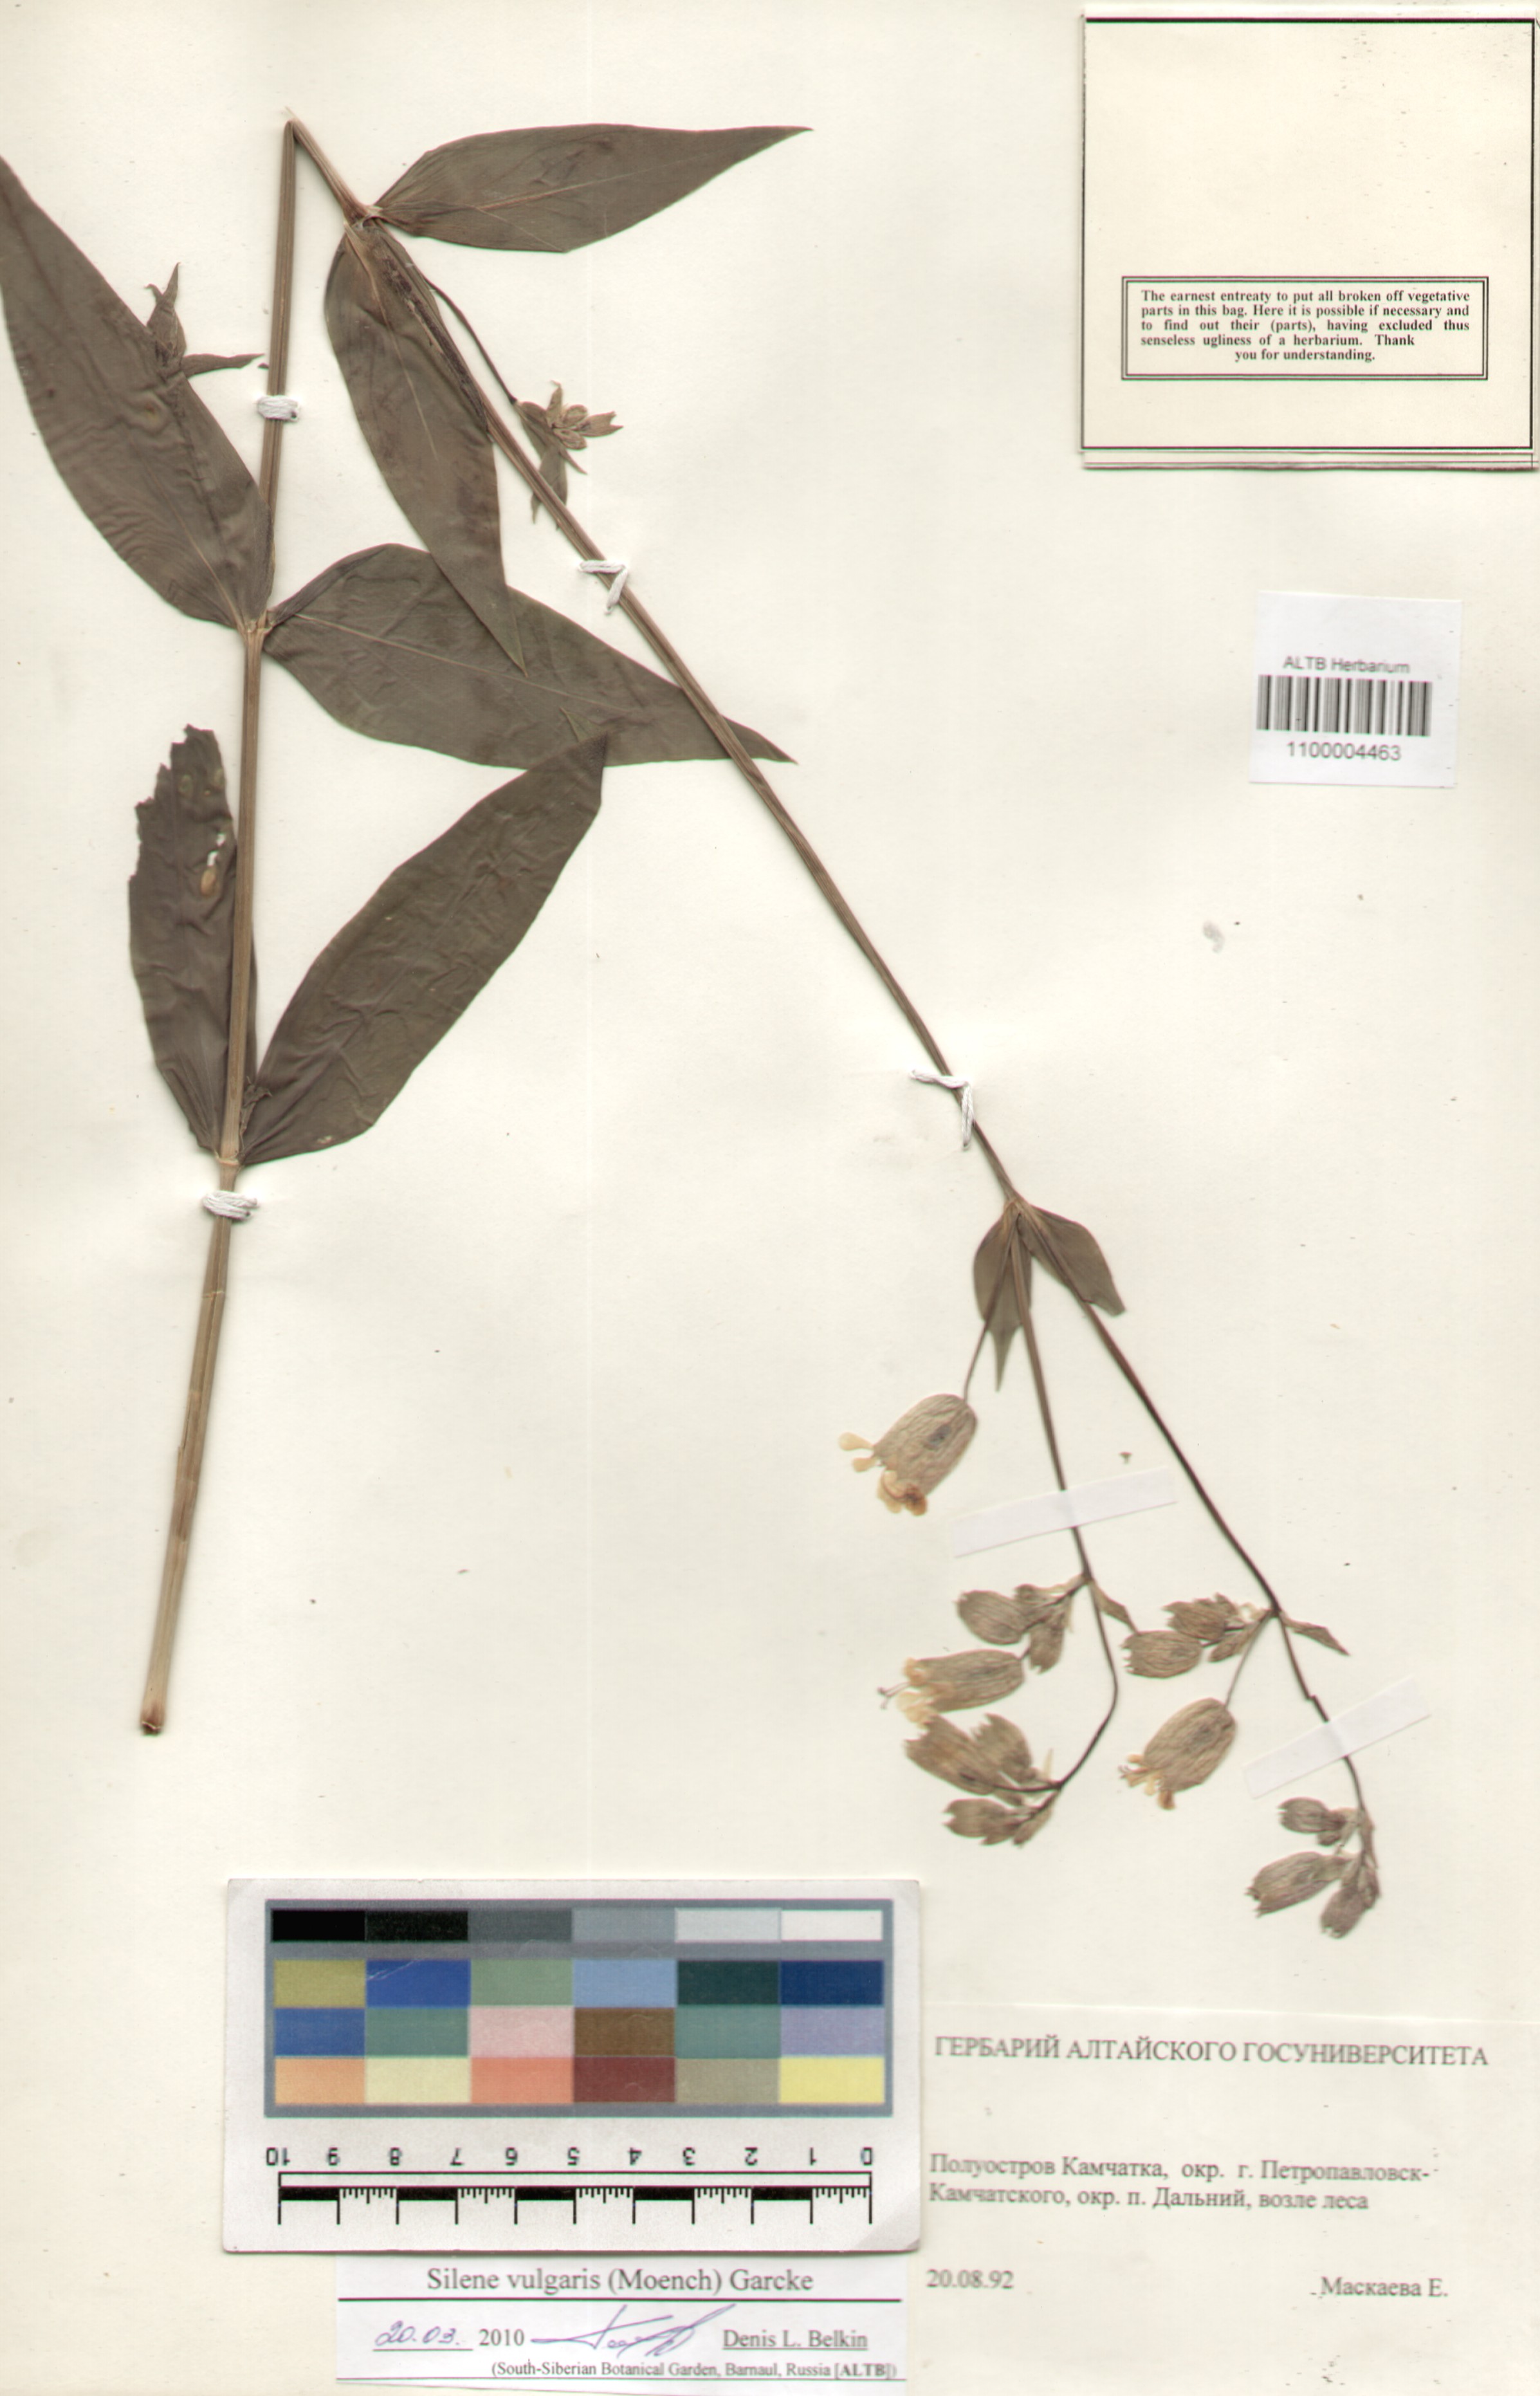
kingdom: Plantae
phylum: Tracheophyta
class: Magnoliopsida
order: Caryophyllales
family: Caryophyllaceae
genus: Silene
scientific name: Silene vulgaris
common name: Bladder campion
